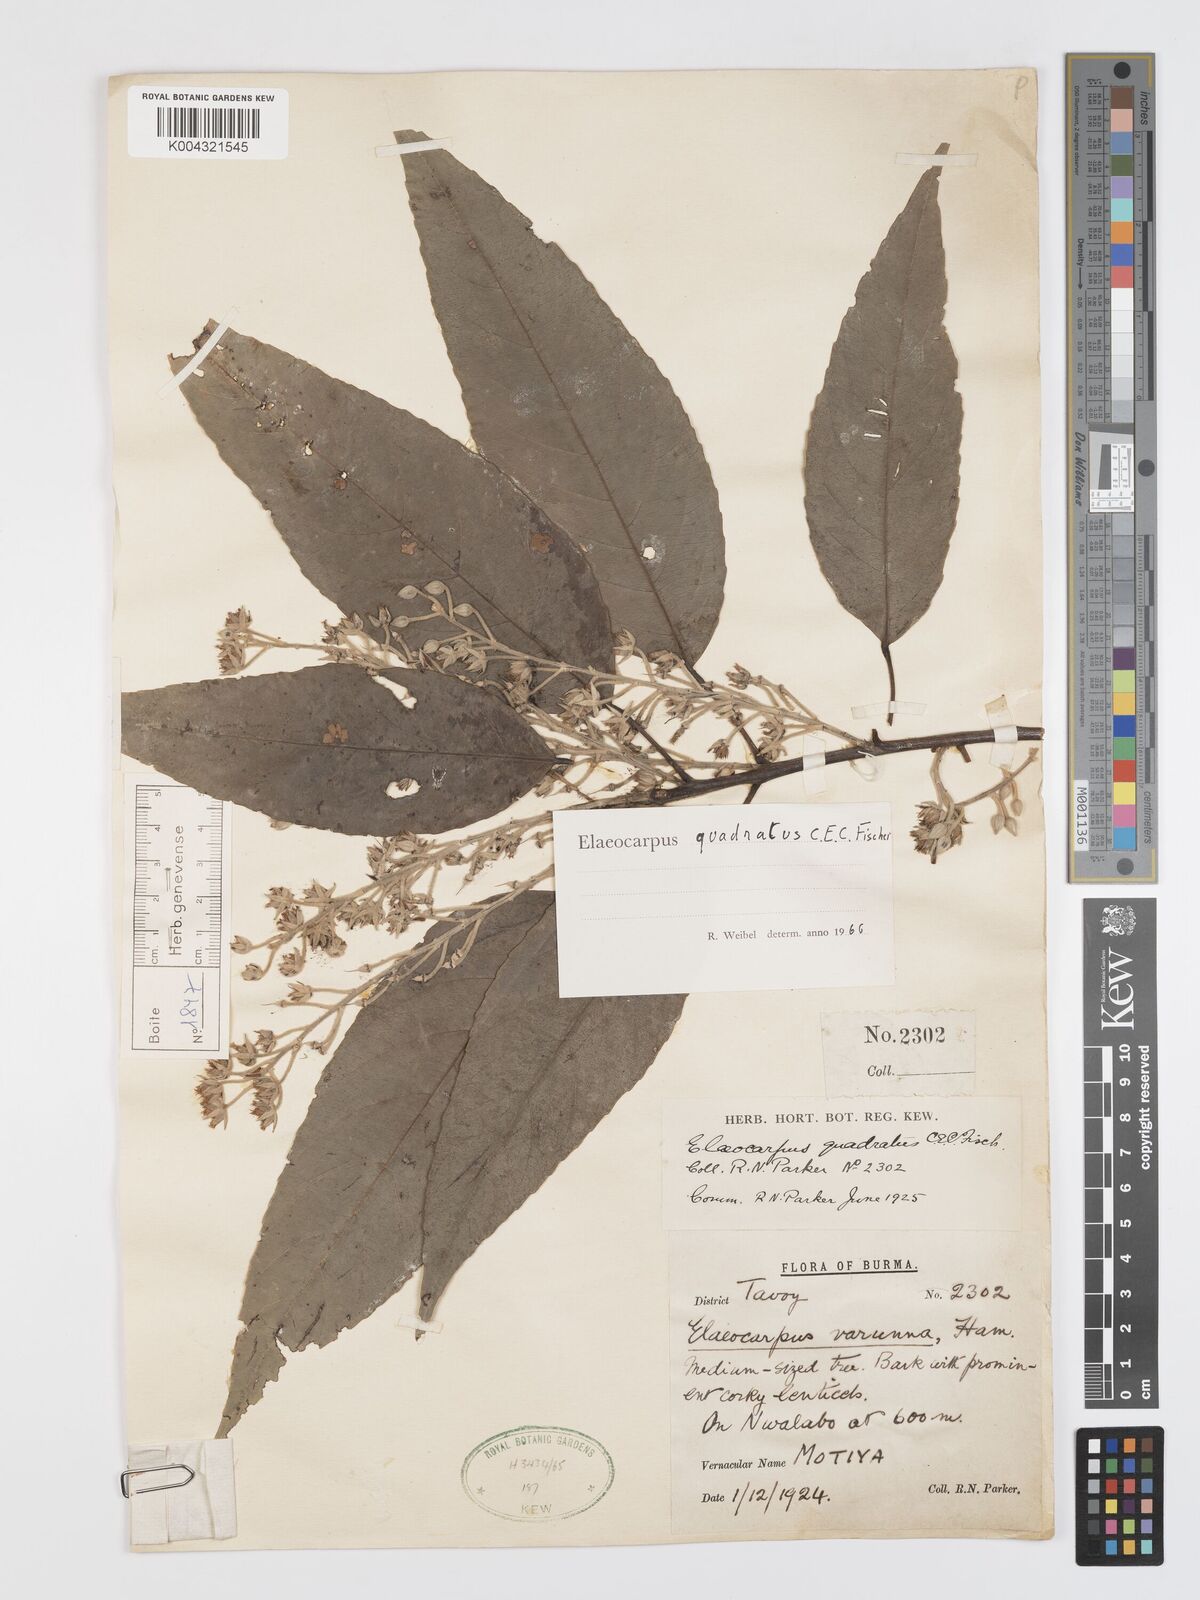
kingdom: Plantae
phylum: Tracheophyta
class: Magnoliopsida
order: Oxalidales
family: Elaeocarpaceae
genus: Elaeocarpus
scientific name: Elaeocarpus quadratus
